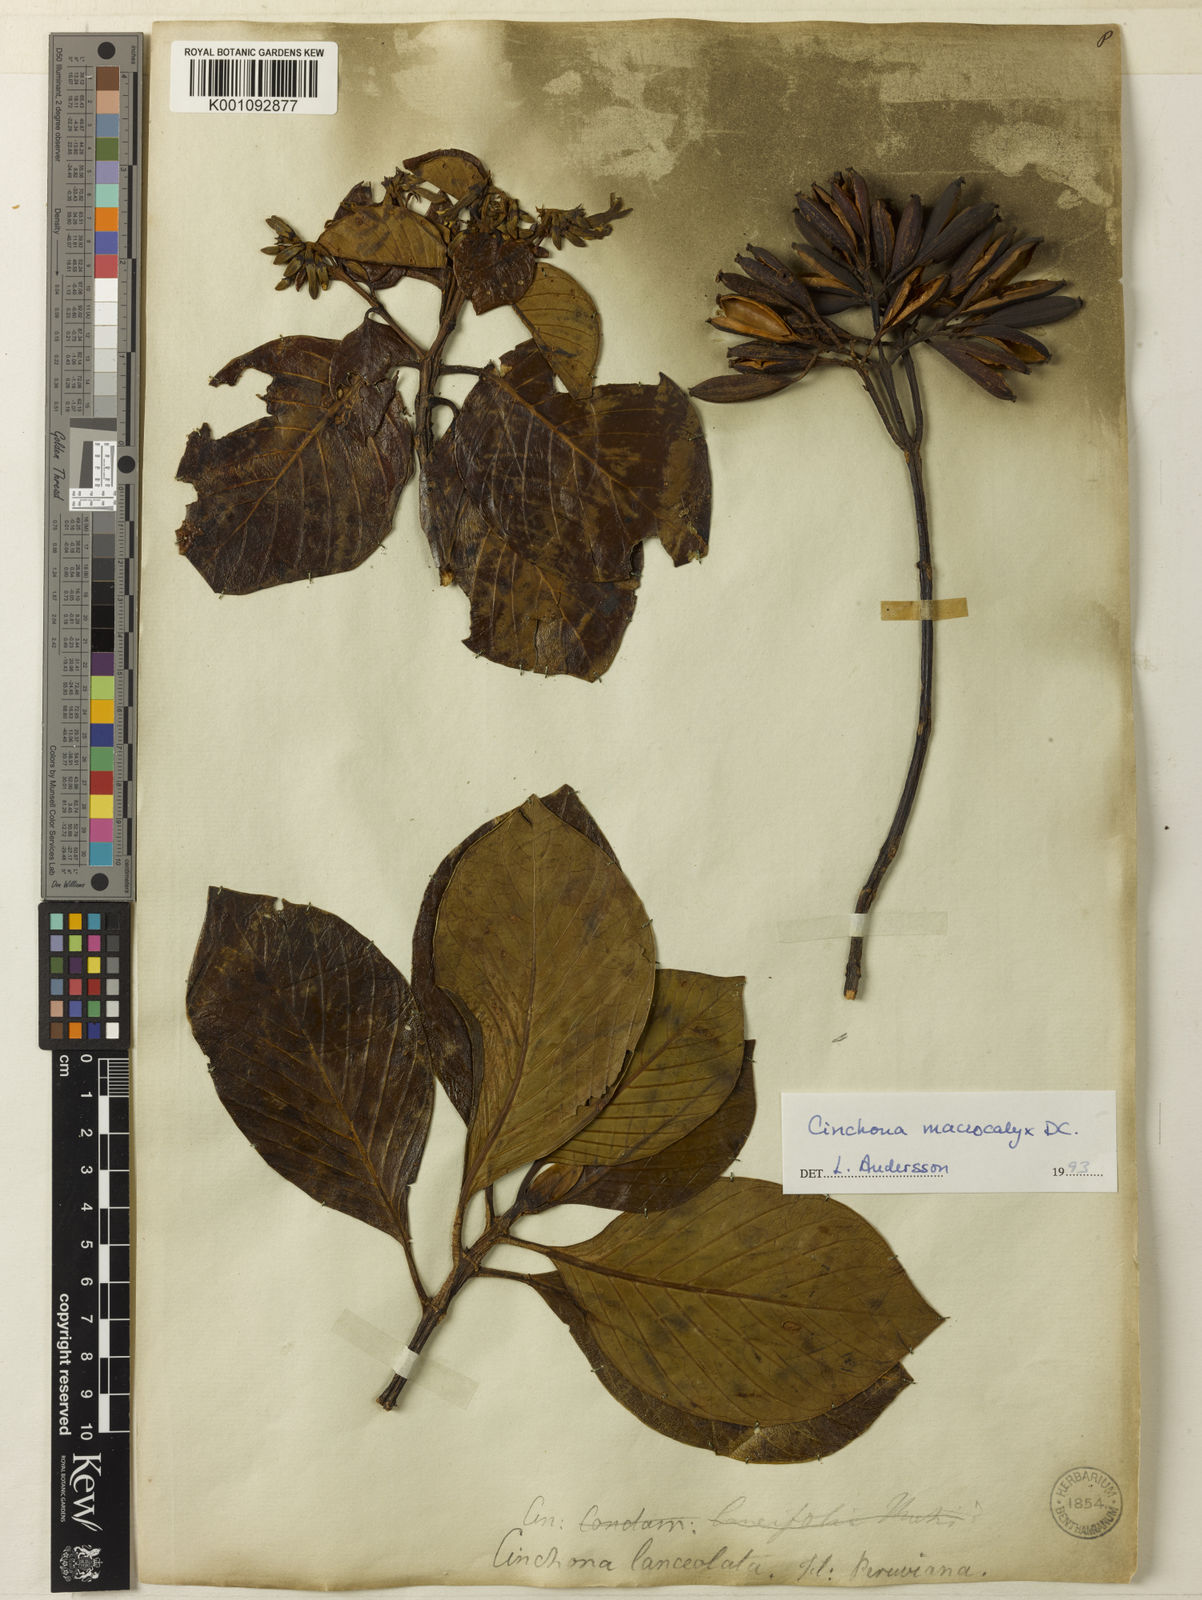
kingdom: Plantae
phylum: Tracheophyta
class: Magnoliopsida
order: Gentianales
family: Rubiaceae
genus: Cinchona
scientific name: Cinchona macrocalyx
